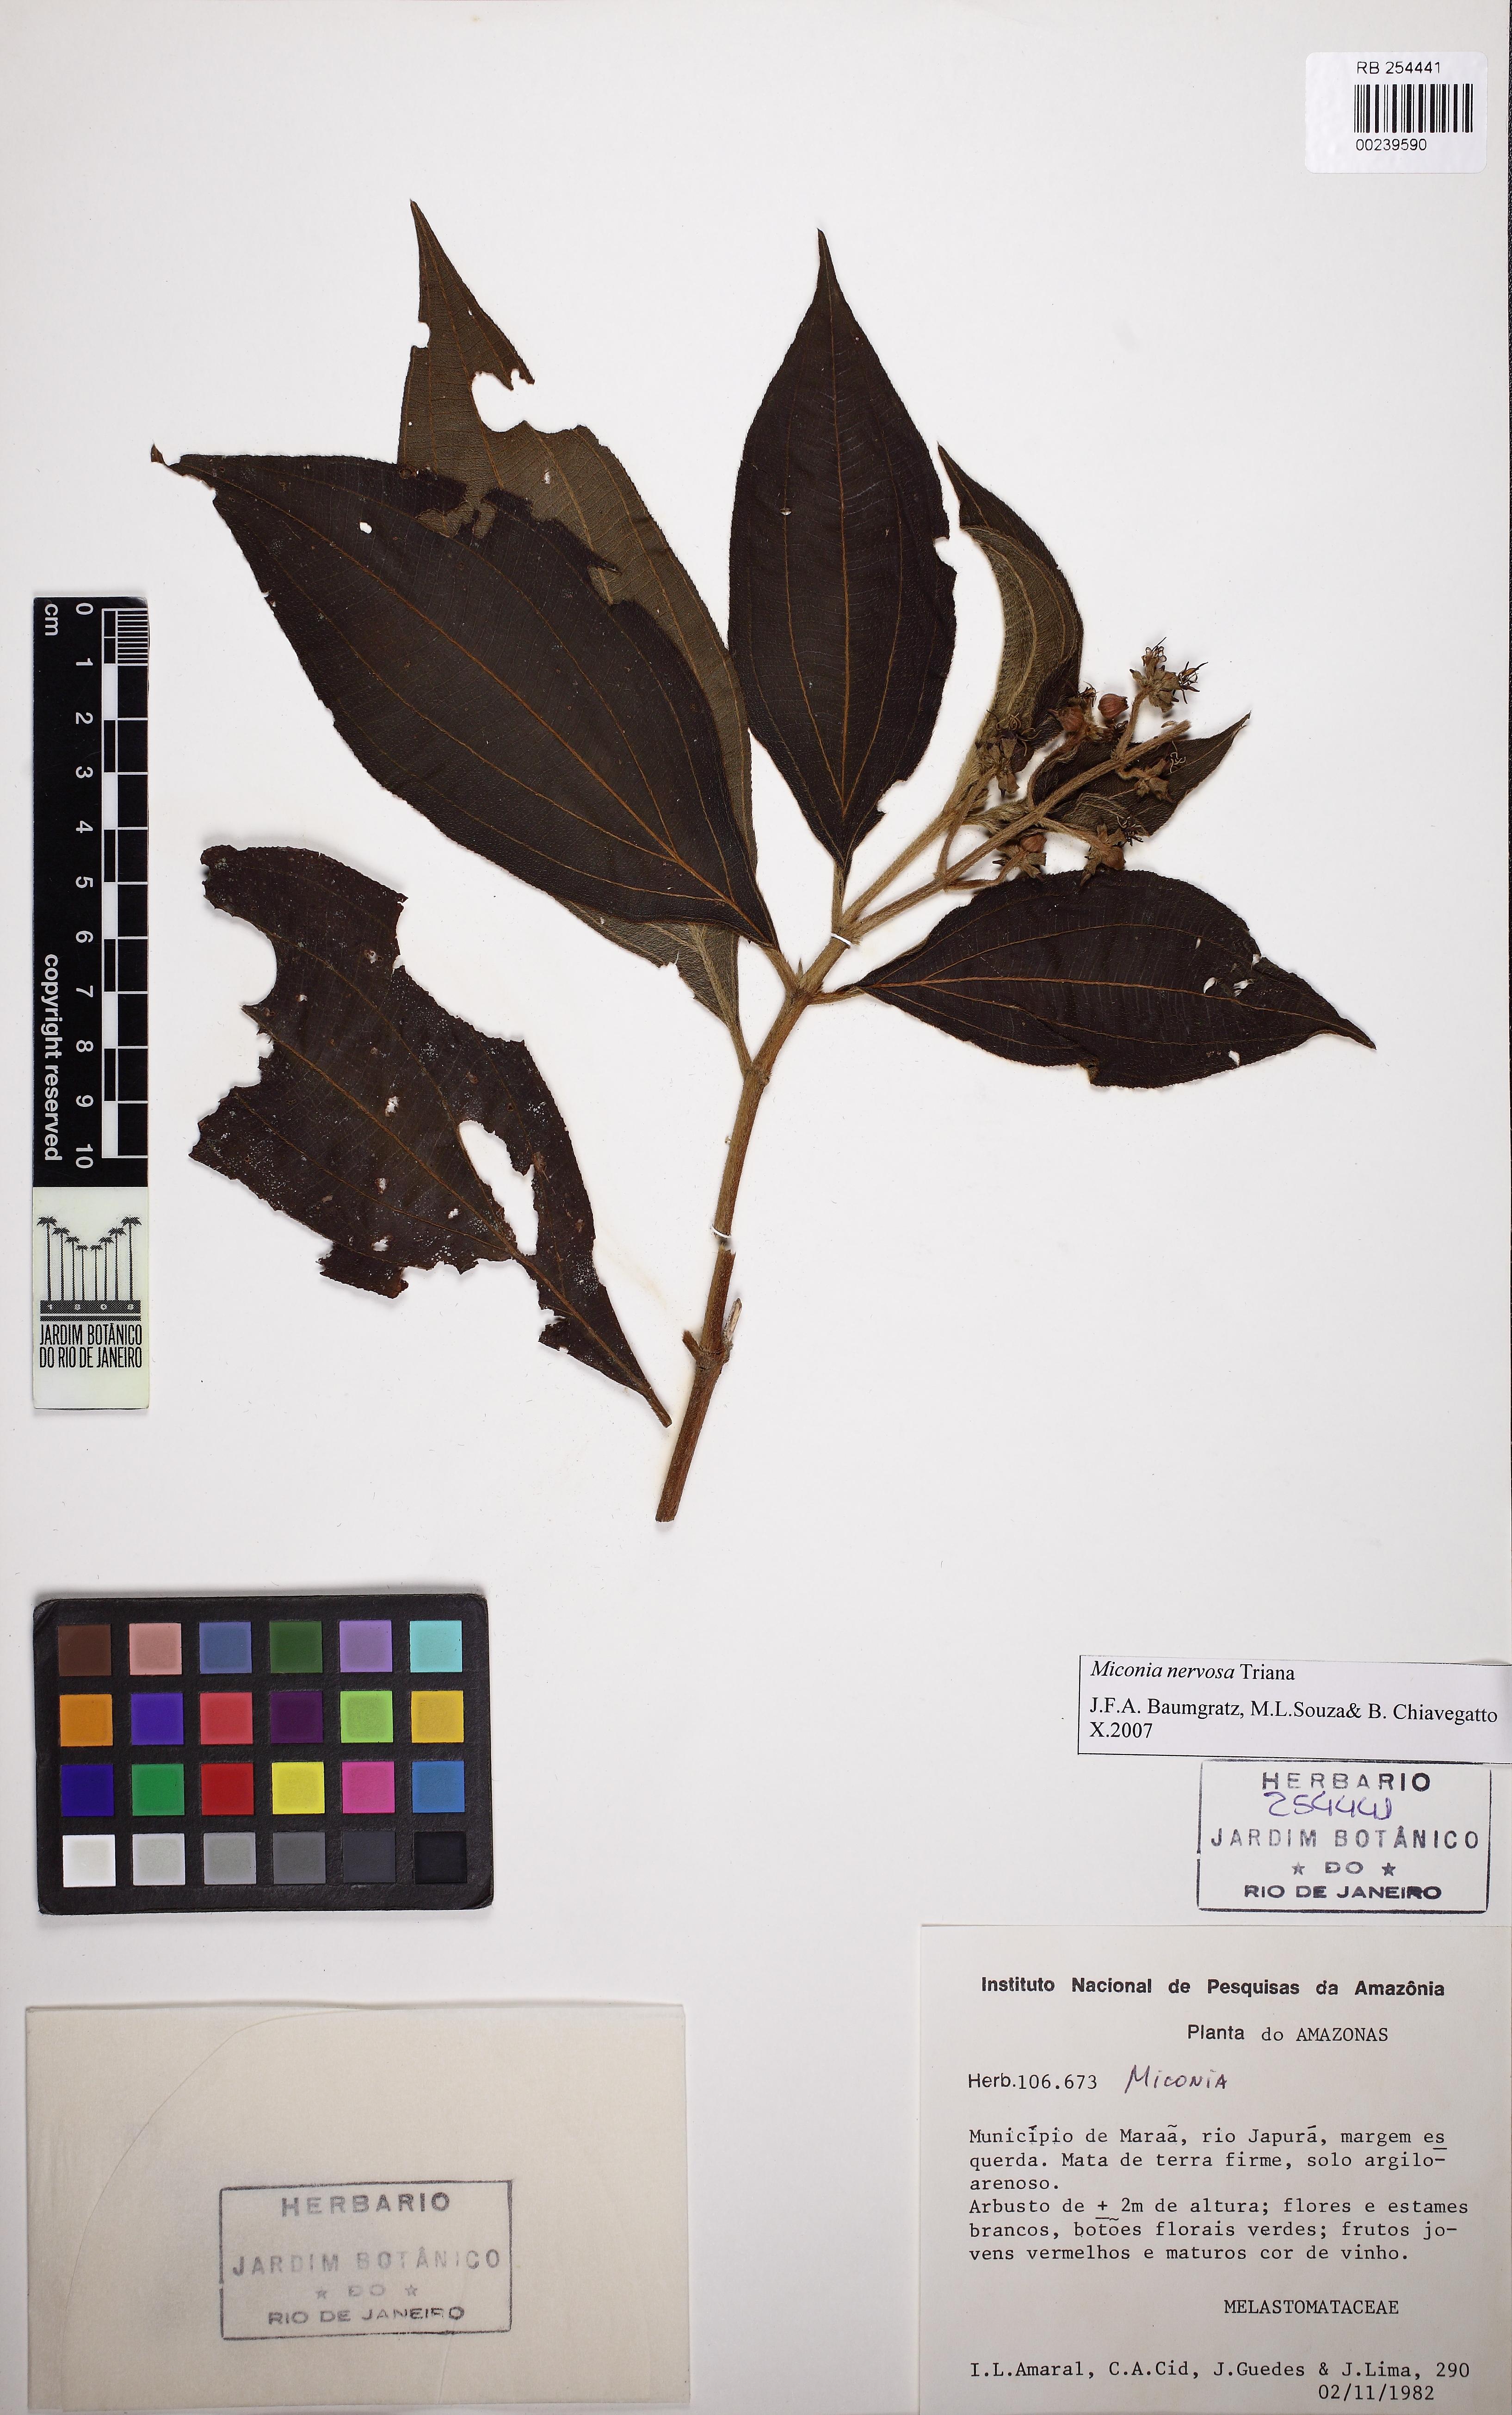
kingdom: Plantae
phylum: Tracheophyta
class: Magnoliopsida
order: Myrtales
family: Melastomataceae
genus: Miconia
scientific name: Miconia nervosa
